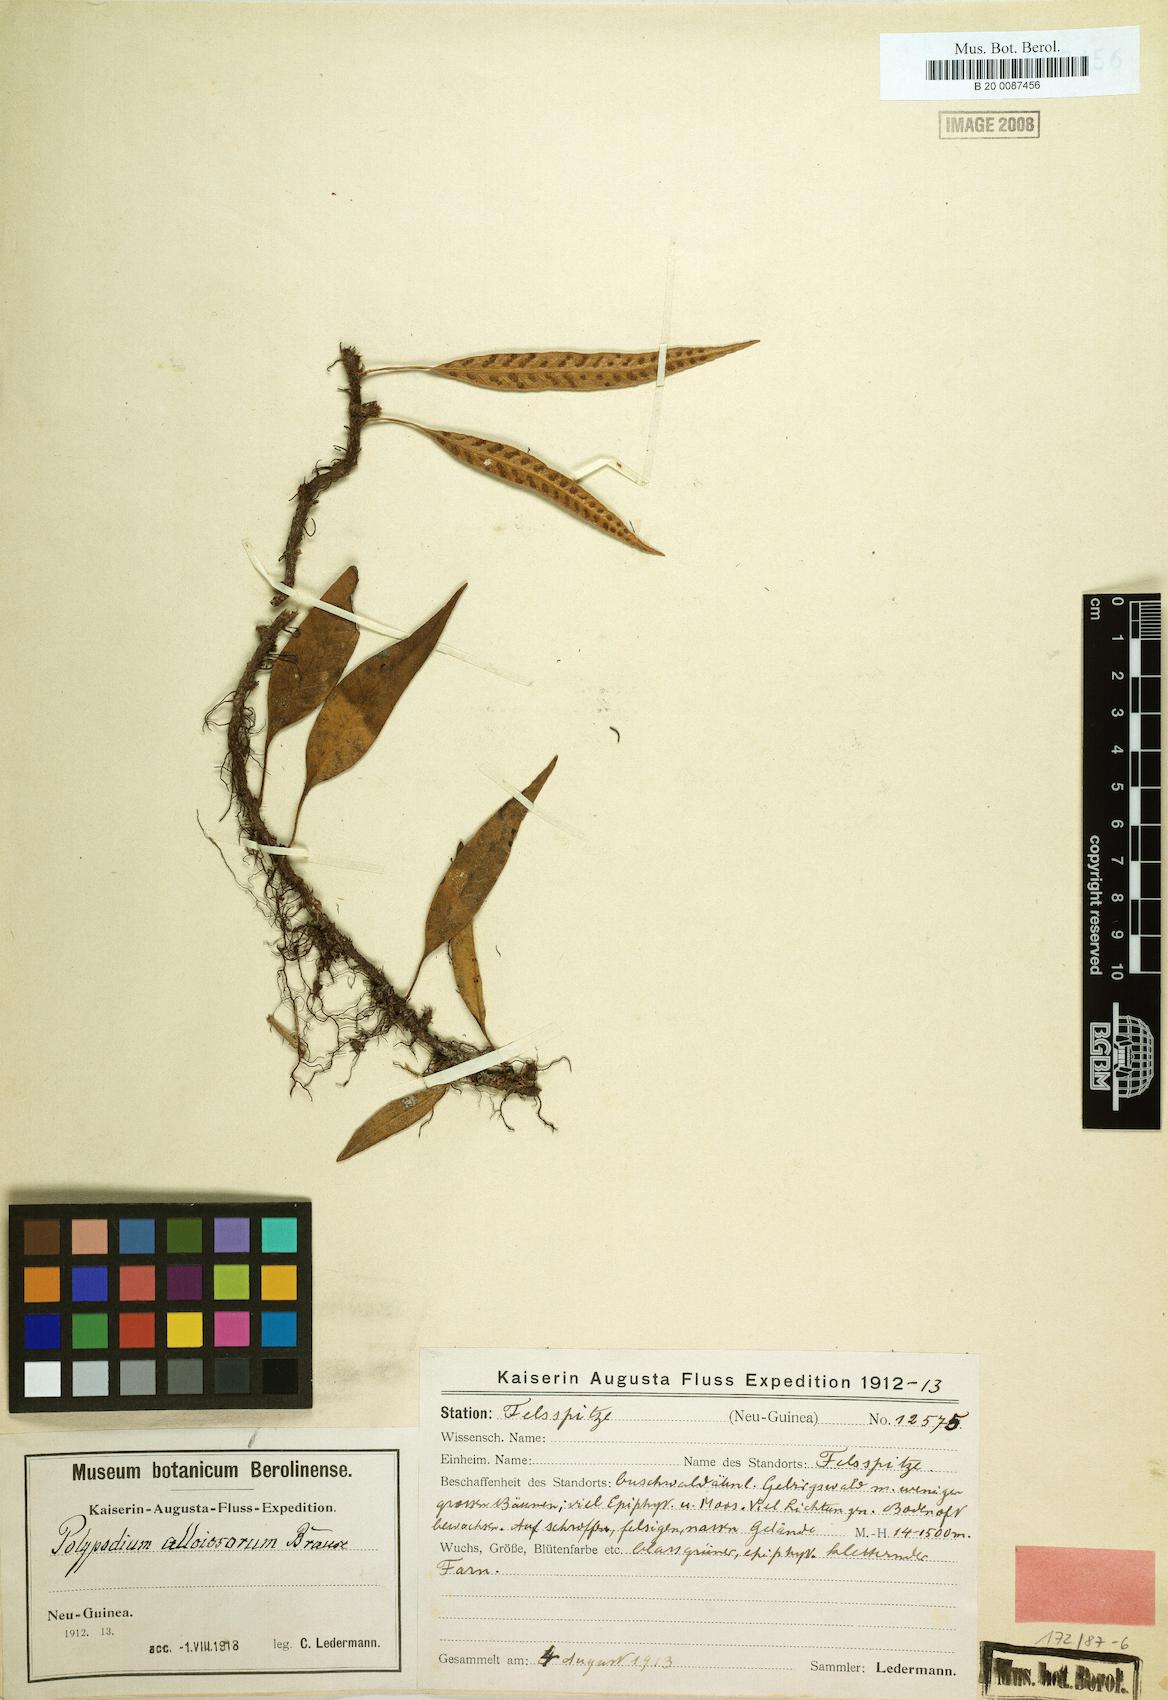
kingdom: Plantae
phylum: Tracheophyta
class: Polypodiopsida
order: Polypodiales
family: Polypodiaceae
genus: Selliguea
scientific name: Selliguea plantaginea
